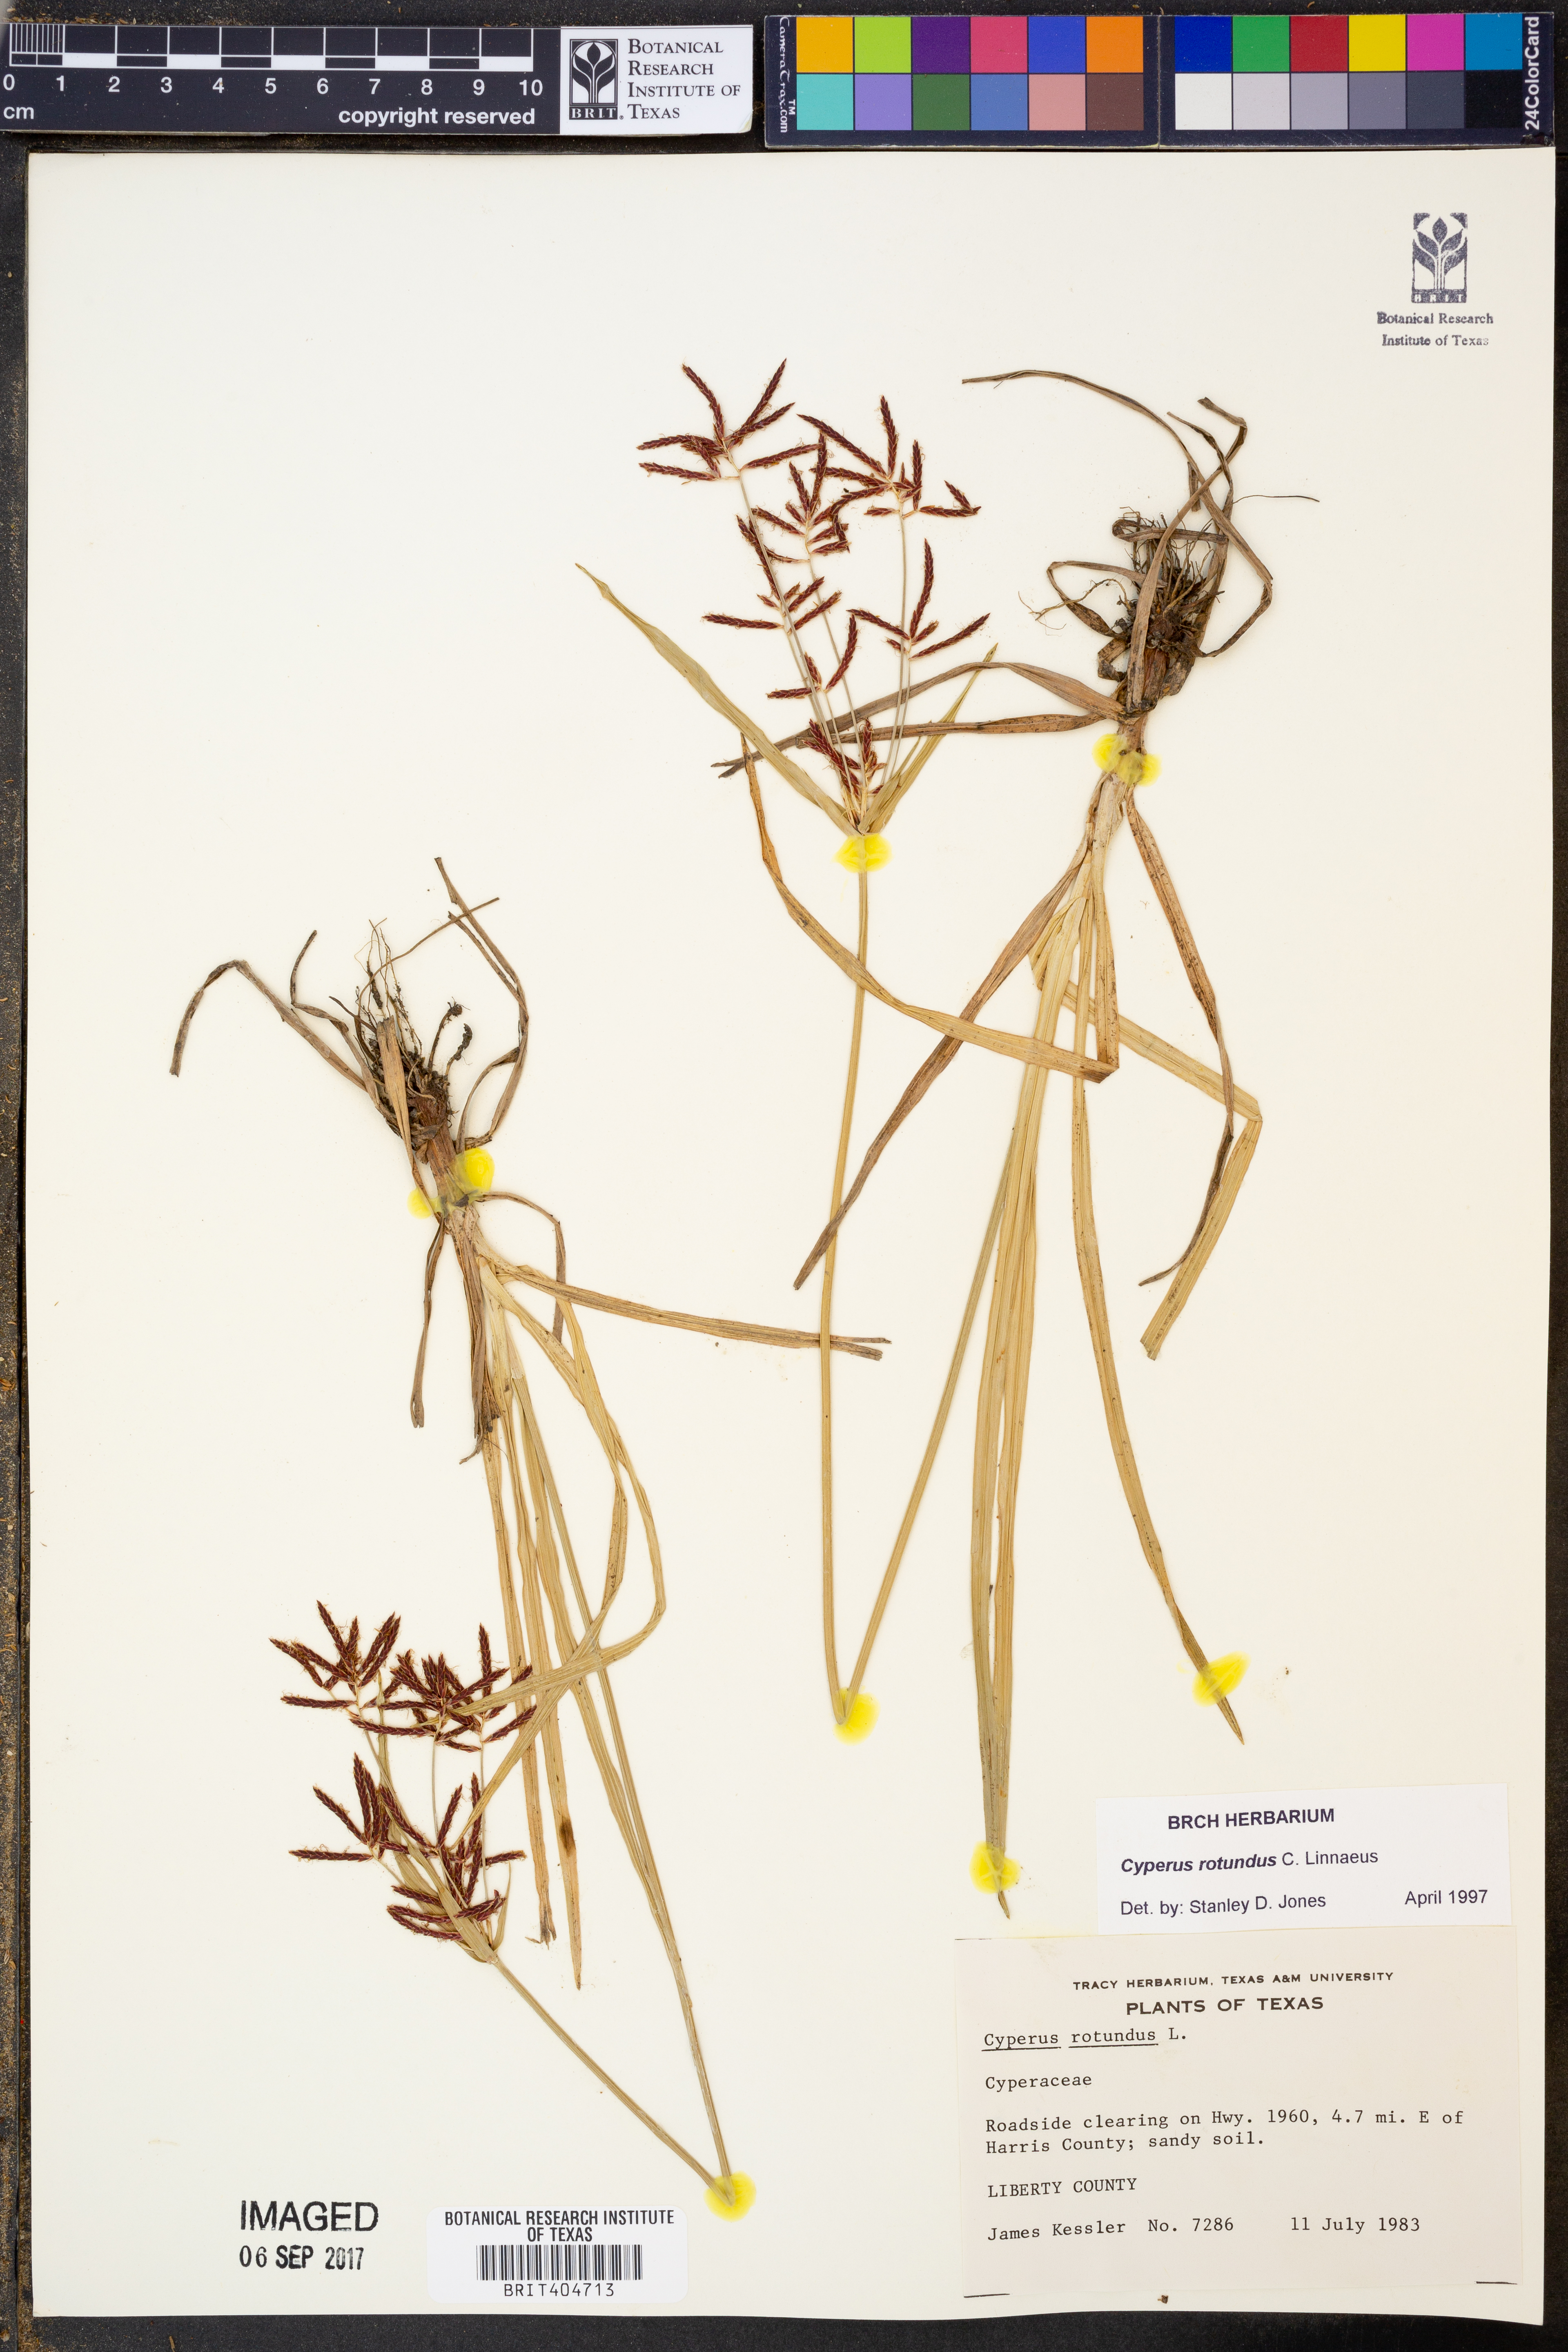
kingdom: Plantae
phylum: Tracheophyta
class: Liliopsida
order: Poales
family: Cyperaceae
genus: Cyperus
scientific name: Cyperus rotundus
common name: Nutgrass
